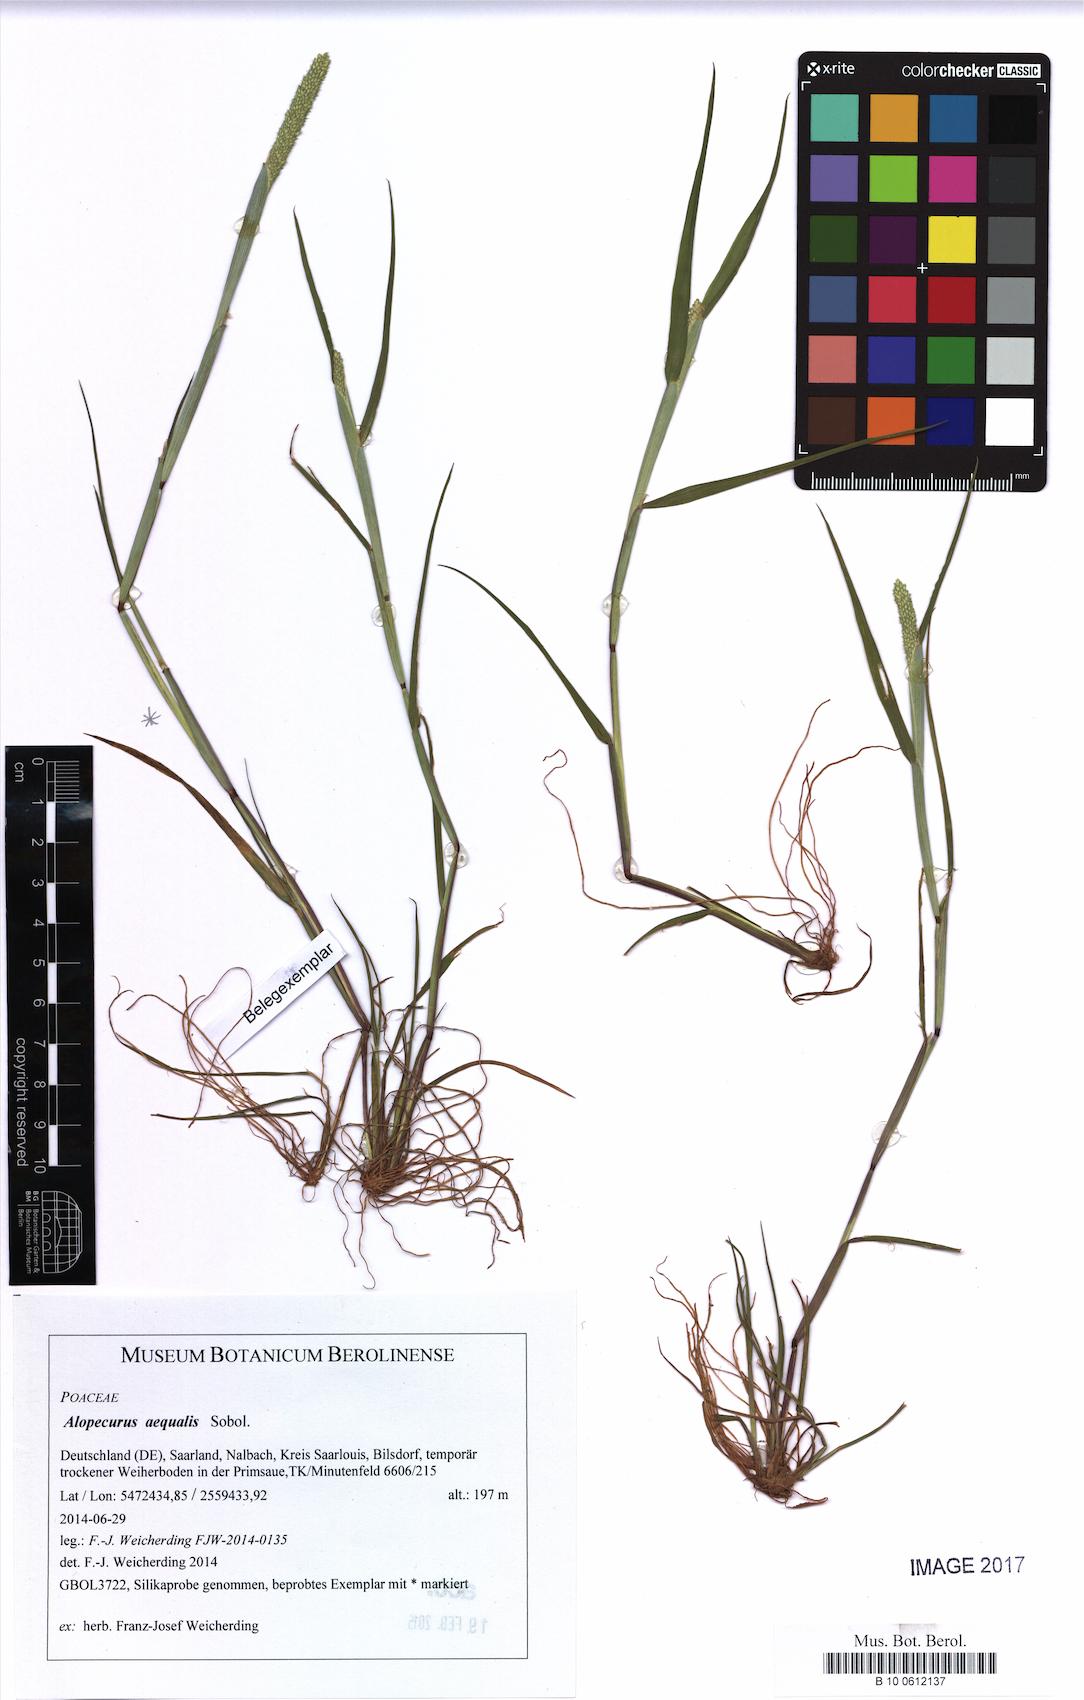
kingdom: Plantae
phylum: Tracheophyta
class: Liliopsida
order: Poales
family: Poaceae
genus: Alopecurus
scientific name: Alopecurus aequalis
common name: Orange foxtail
